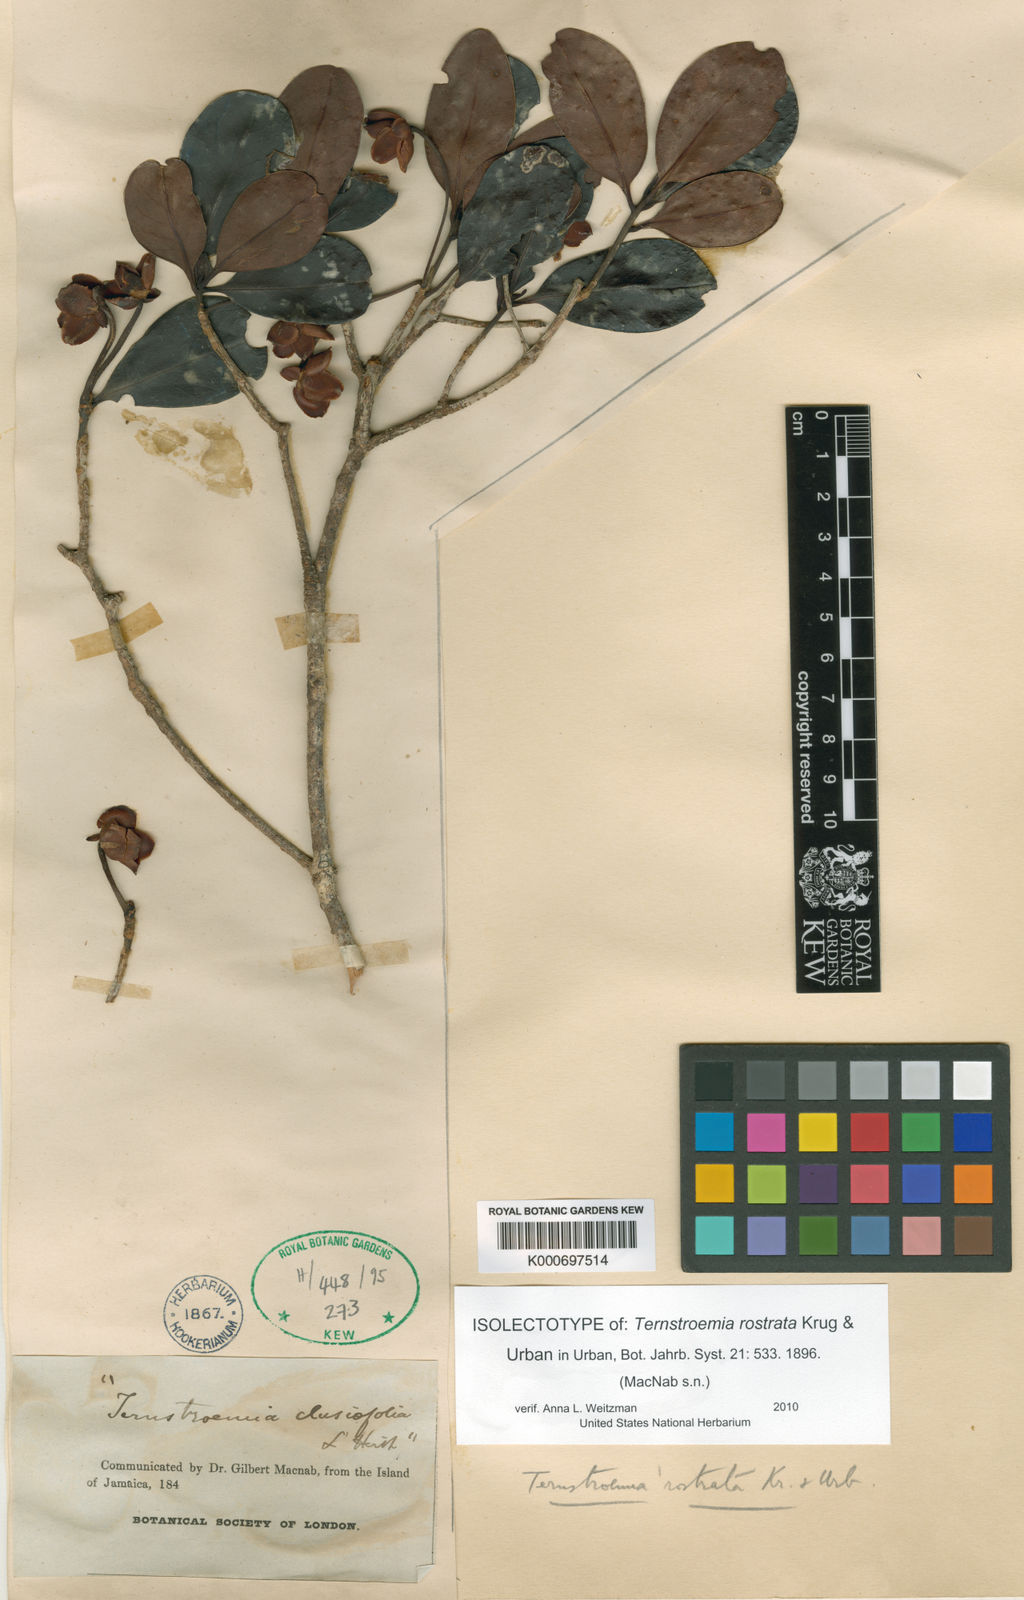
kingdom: Plantae
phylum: Tracheophyta
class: Magnoliopsida
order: Ericales
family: Pentaphylacaceae
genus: Ternstroemia
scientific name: Ternstroemia rostrata
